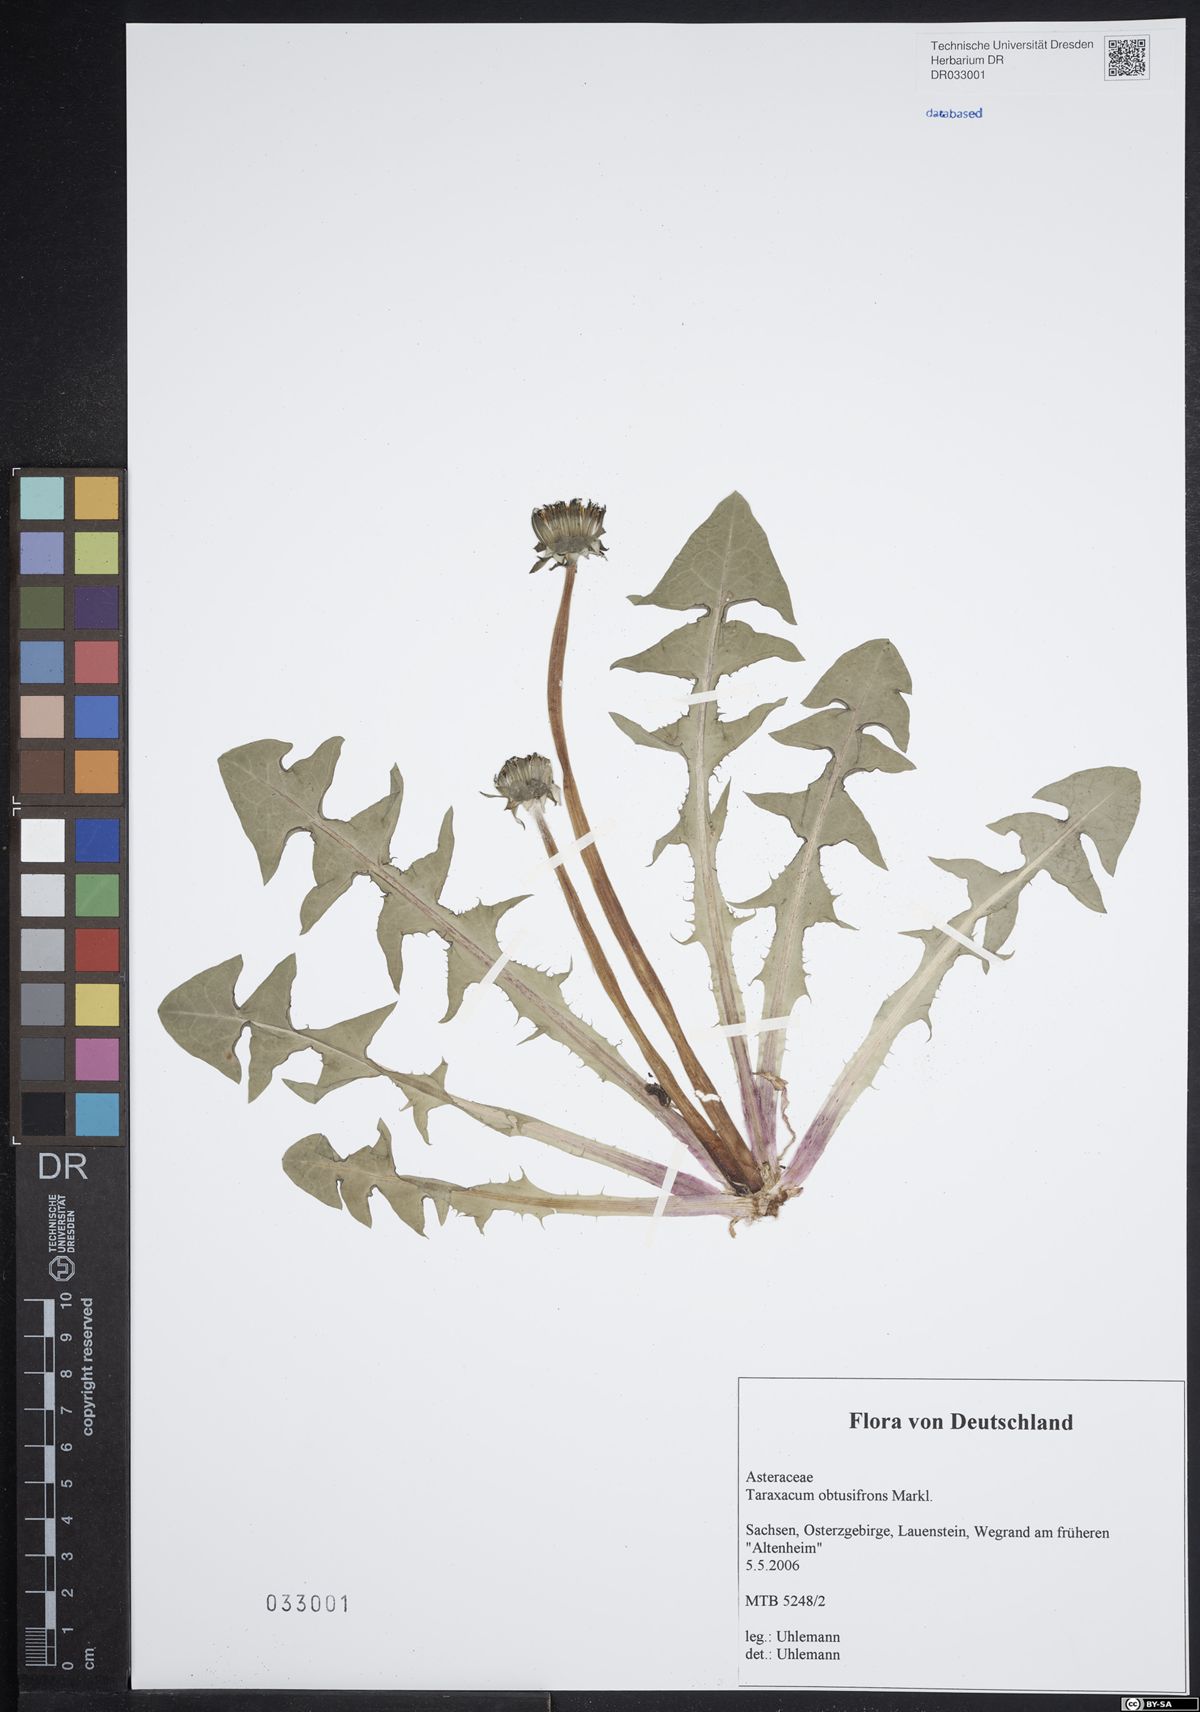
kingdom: Plantae
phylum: Tracheophyta
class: Magnoliopsida
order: Asterales
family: Asteraceae
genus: Taraxacum
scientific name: Taraxacum obtusifrons
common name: Obtuse-leaved dandelion
